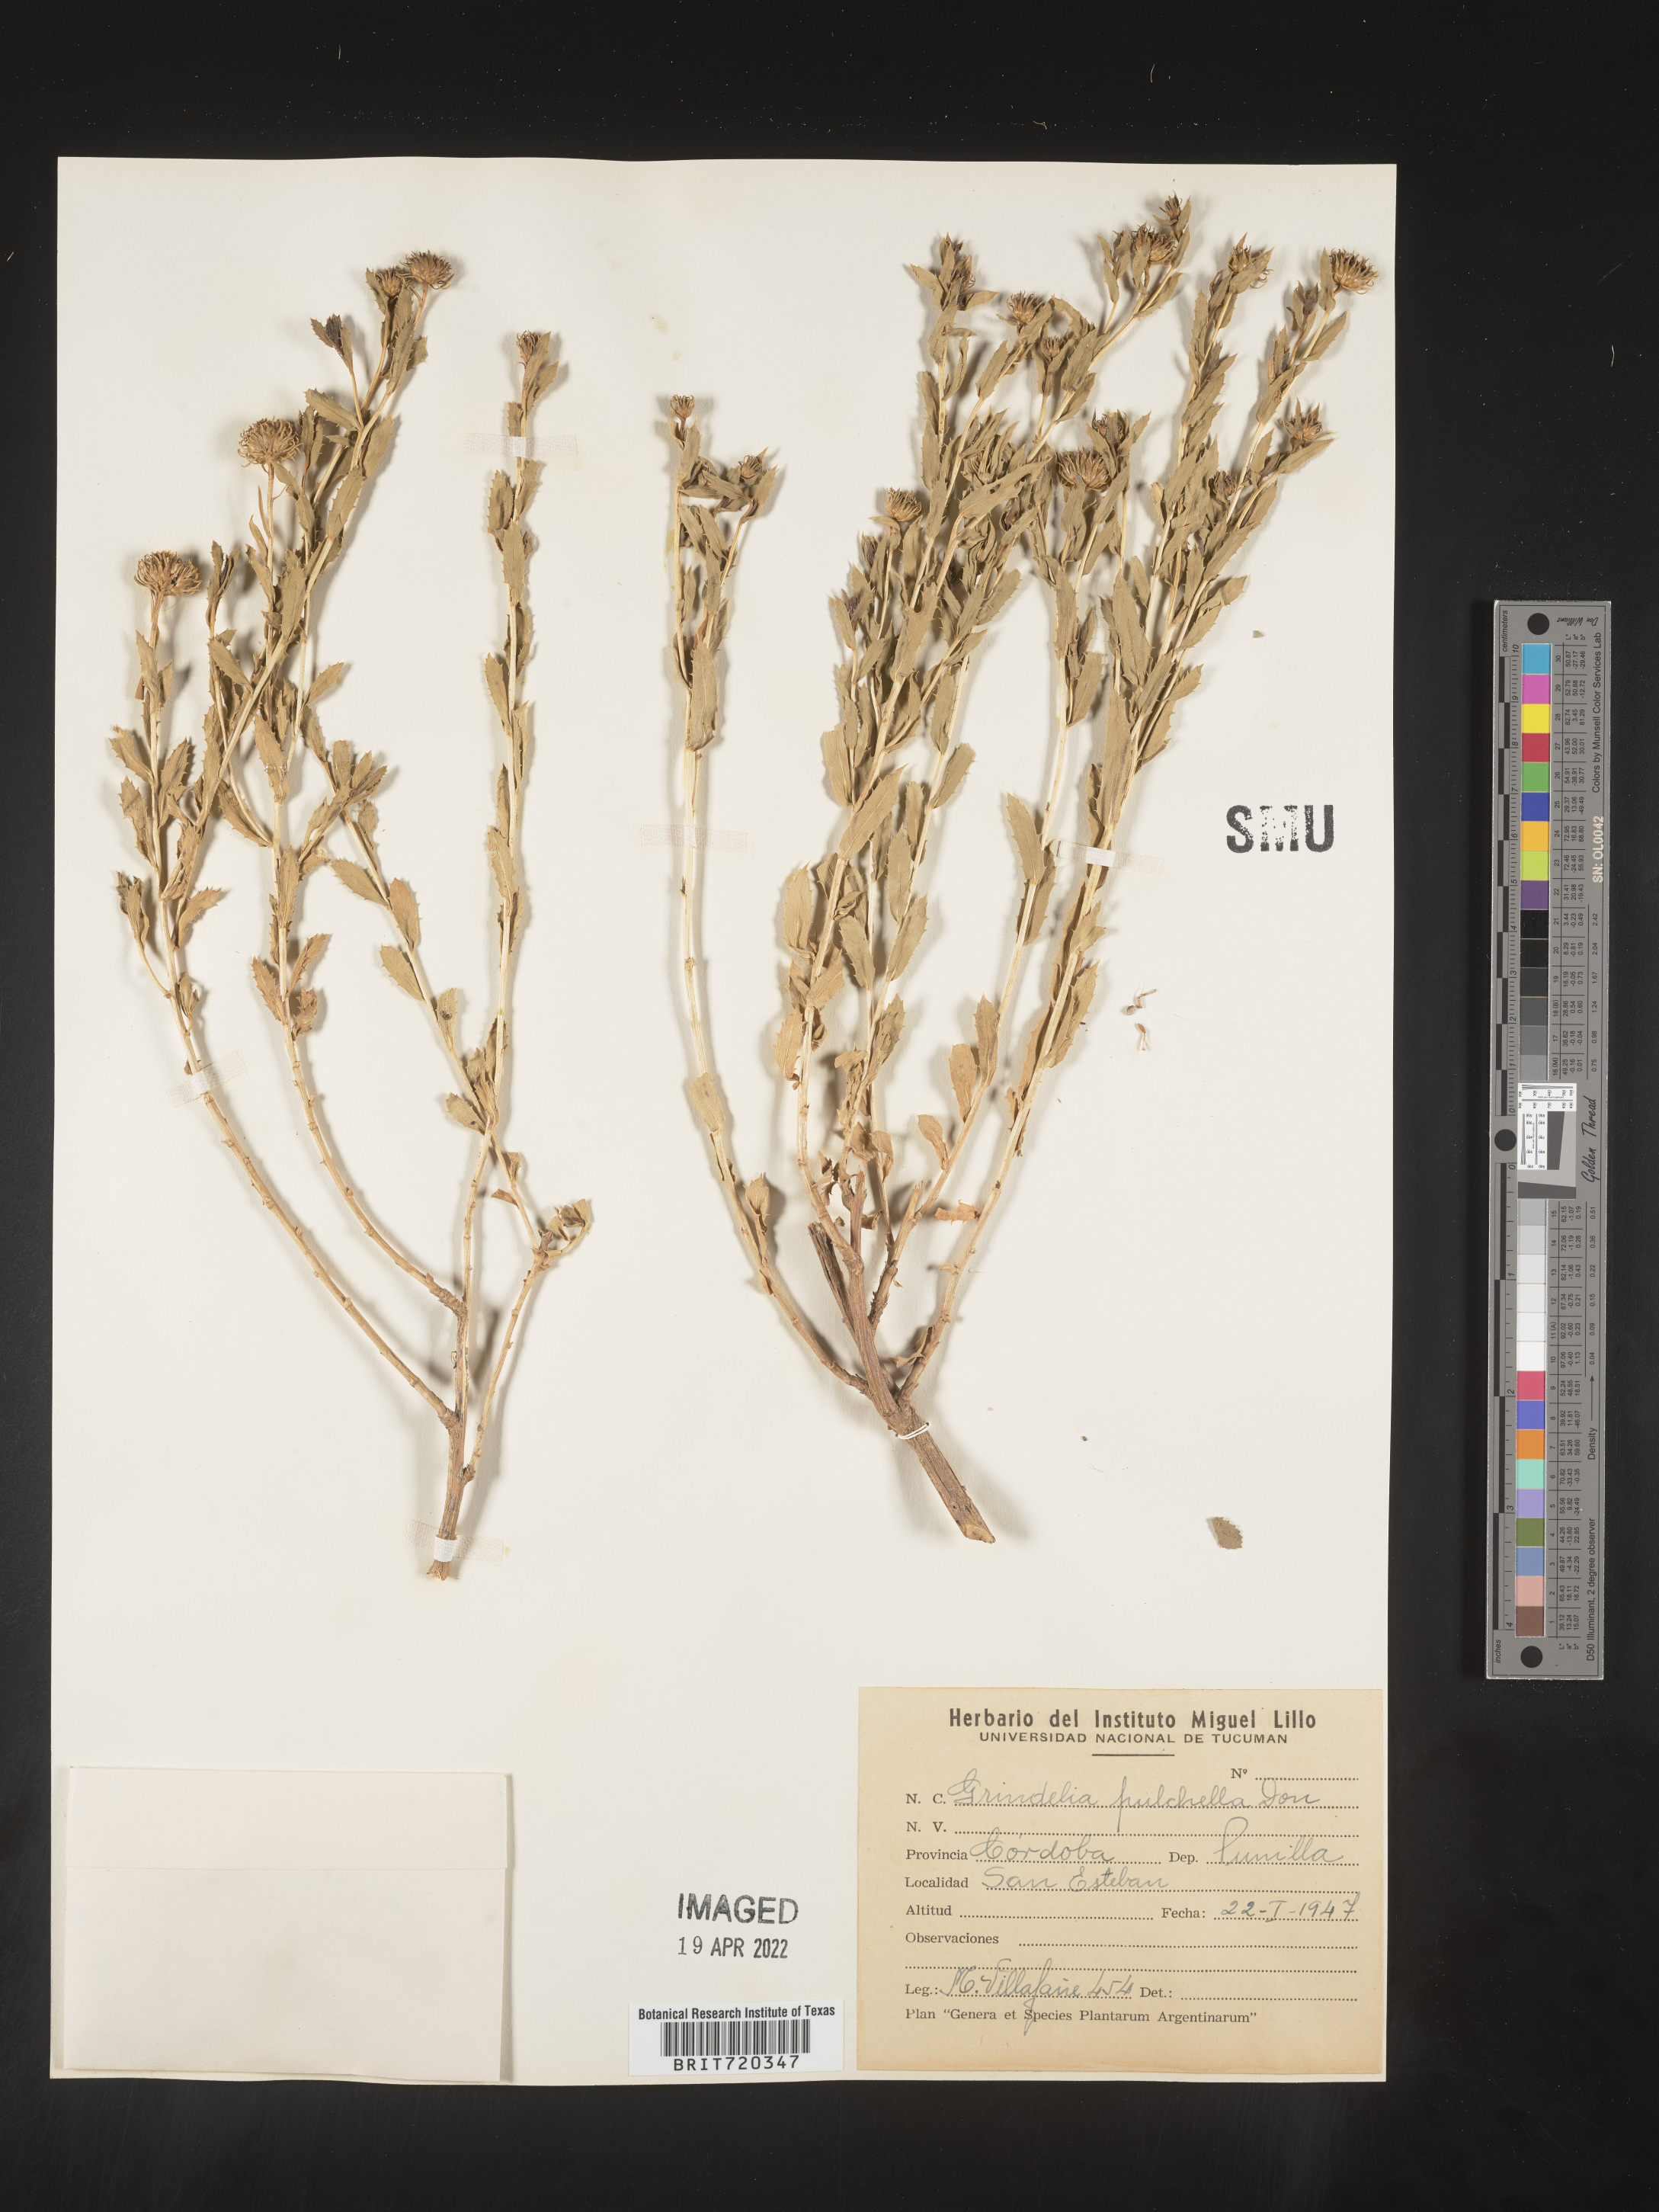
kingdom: Plantae
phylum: Tracheophyta
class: Magnoliopsida
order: Asterales
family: Asteraceae
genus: Grindelia
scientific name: Grindelia
